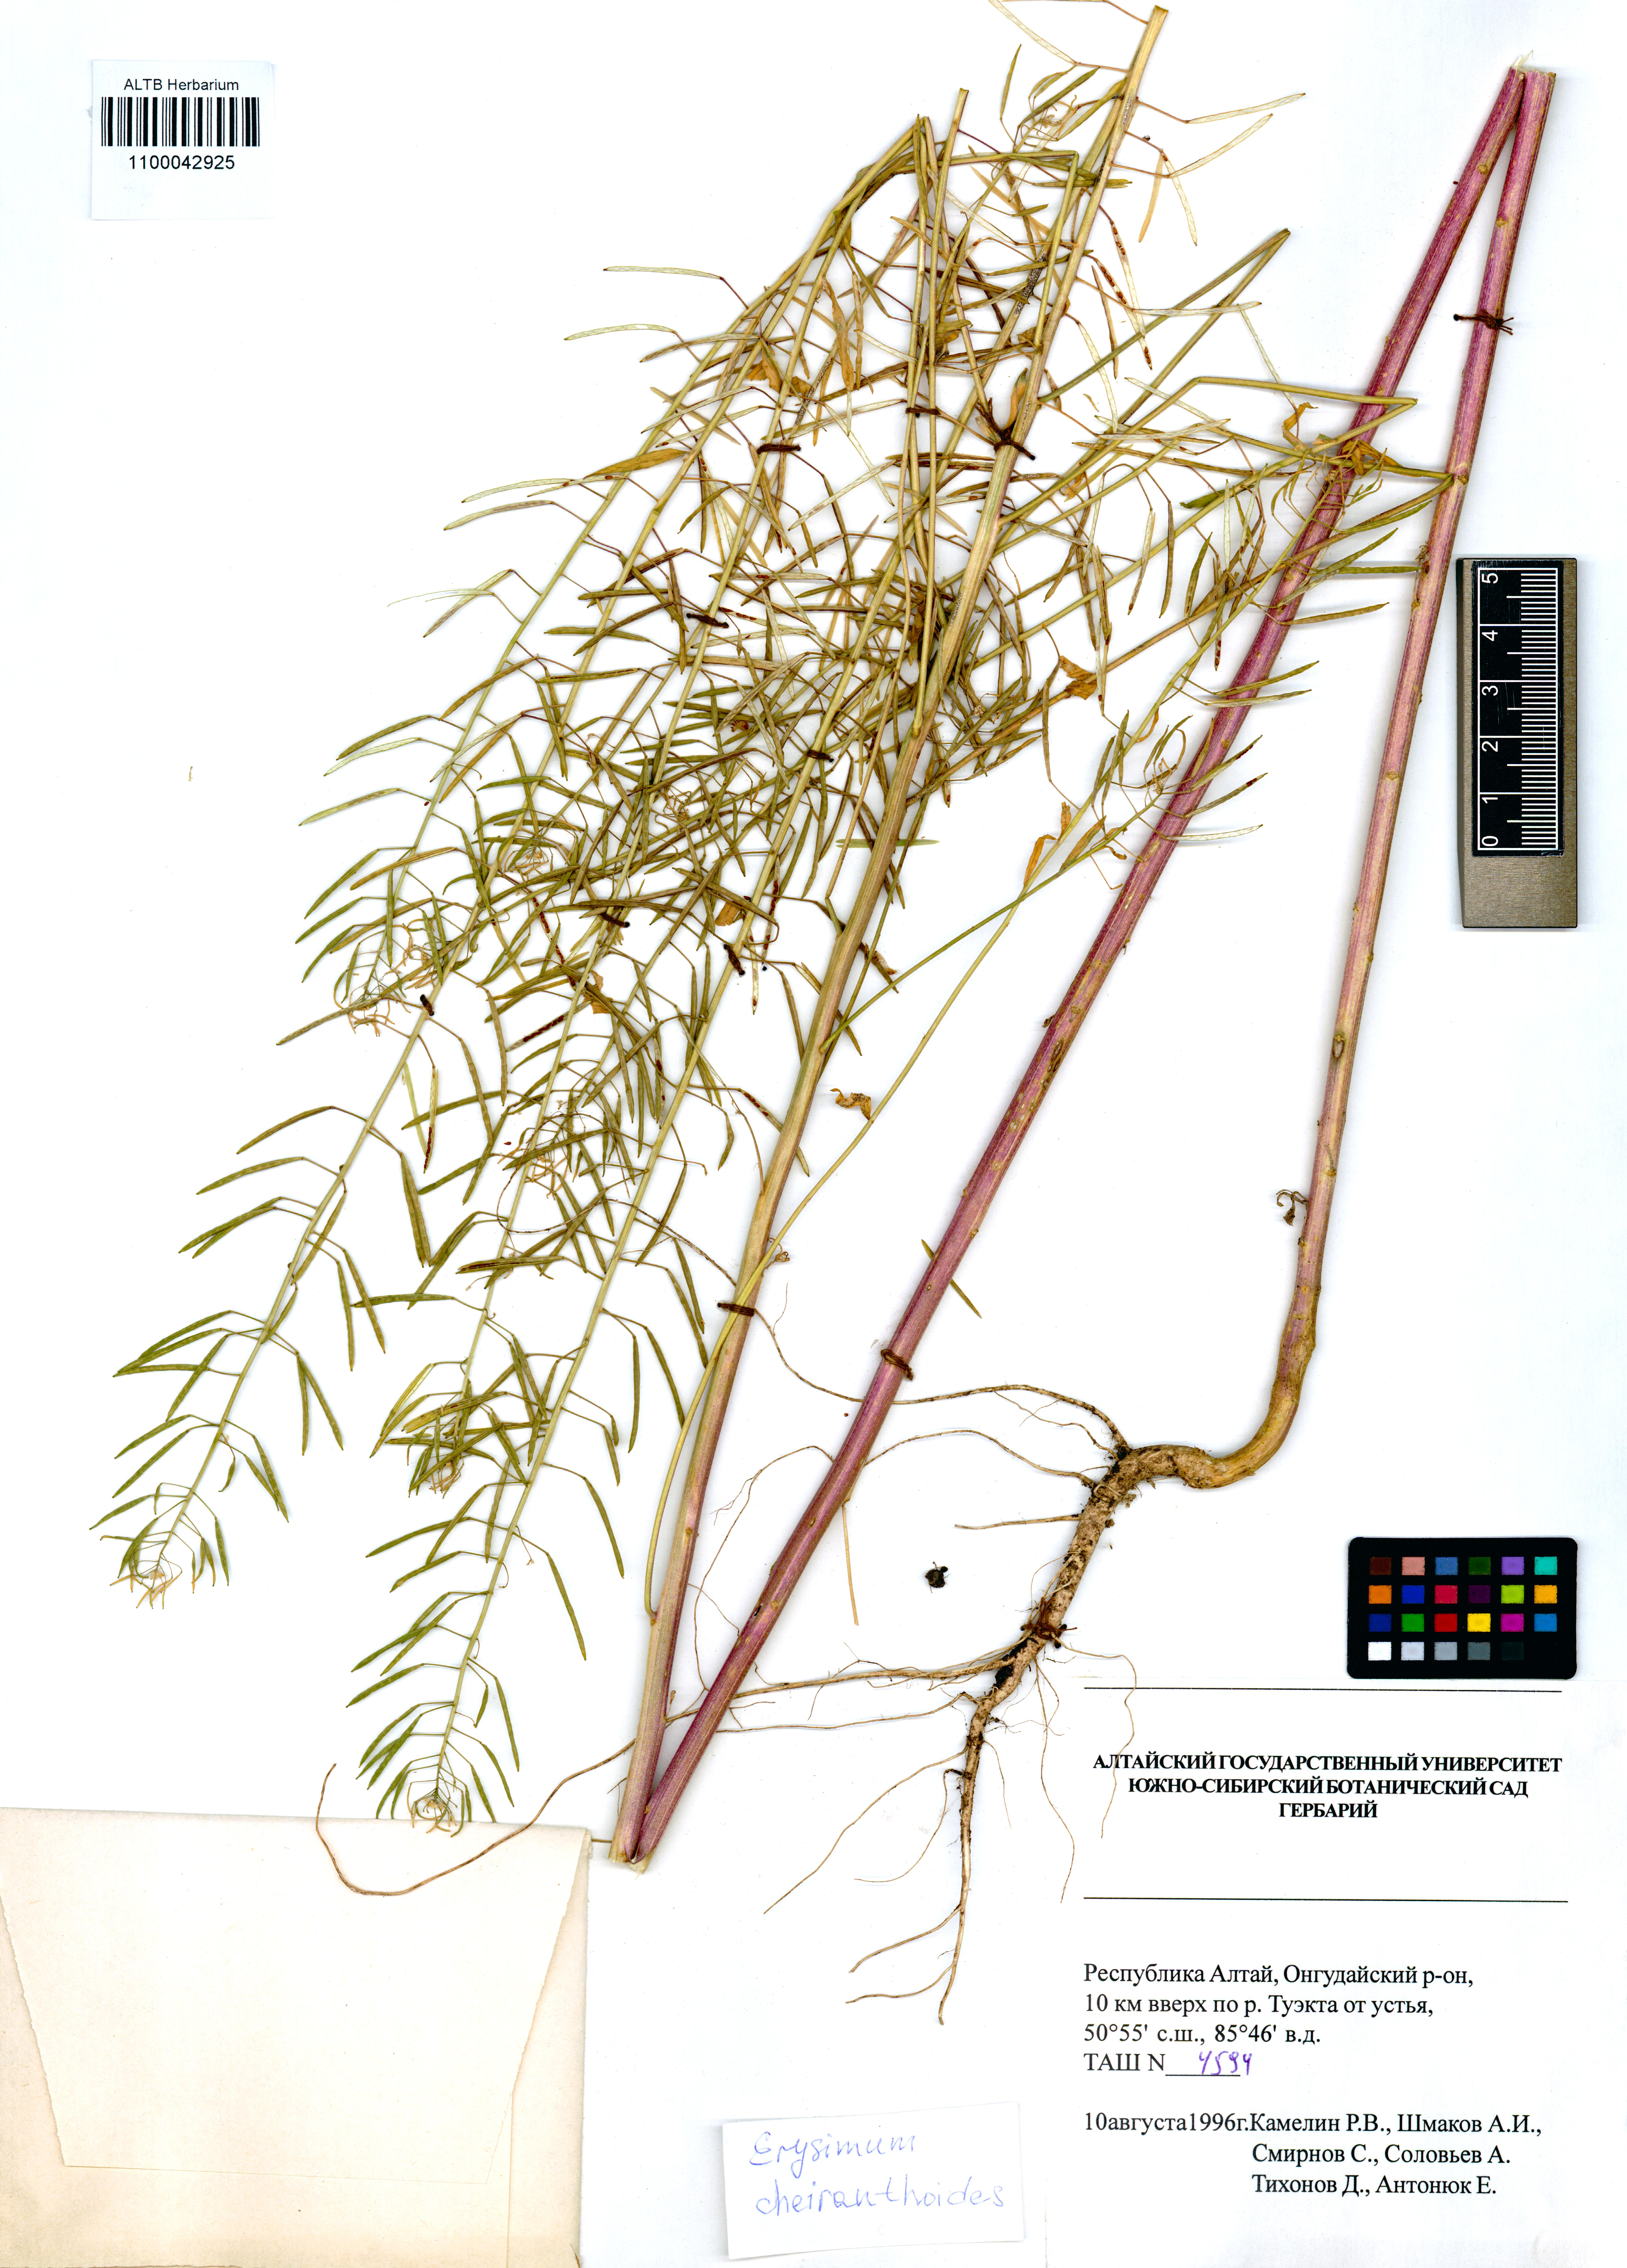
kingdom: Plantae
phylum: Tracheophyta
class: Magnoliopsida
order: Brassicales
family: Brassicaceae
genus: Erysimum
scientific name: Erysimum cheiranthoides
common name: Treacle mustard
